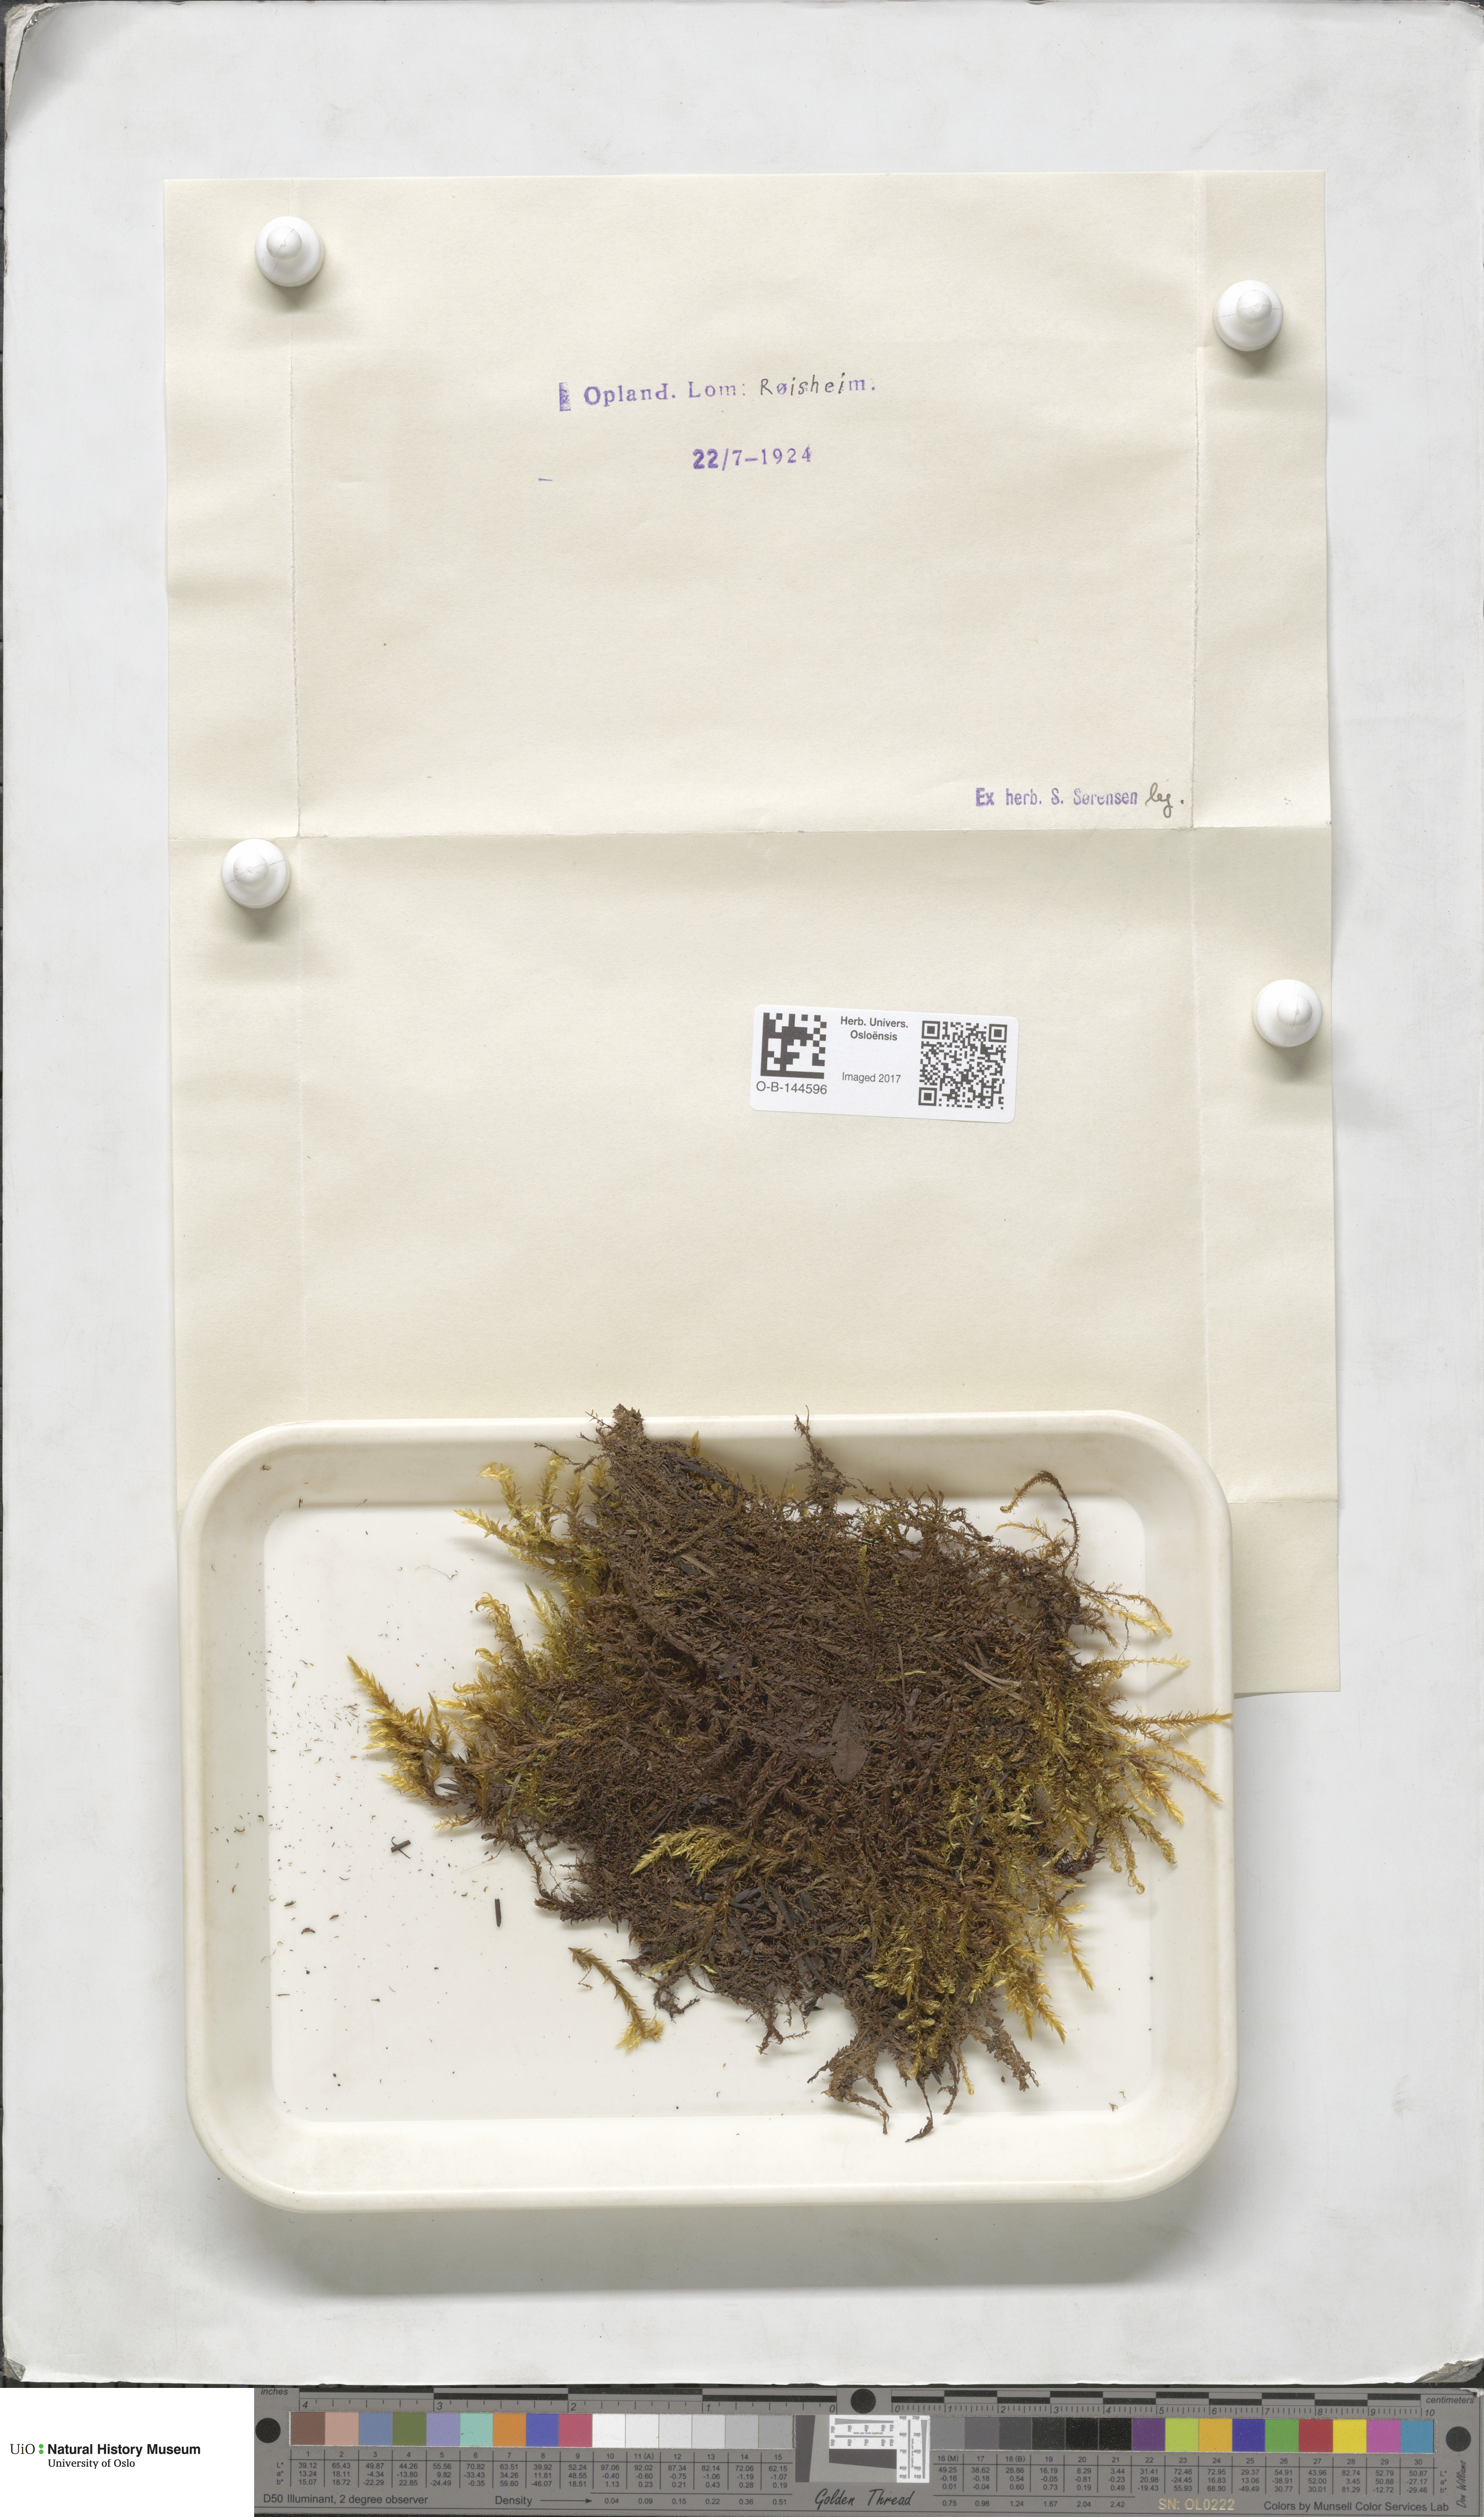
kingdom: Plantae
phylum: Bryophyta
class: Bryopsida
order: Hypnales
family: Calliergonaceae
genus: Calliergon
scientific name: Calliergon
